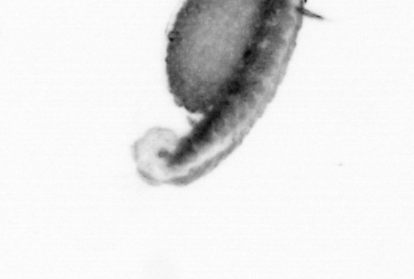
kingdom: Animalia
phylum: Annelida
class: Polychaeta
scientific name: Polychaeta
